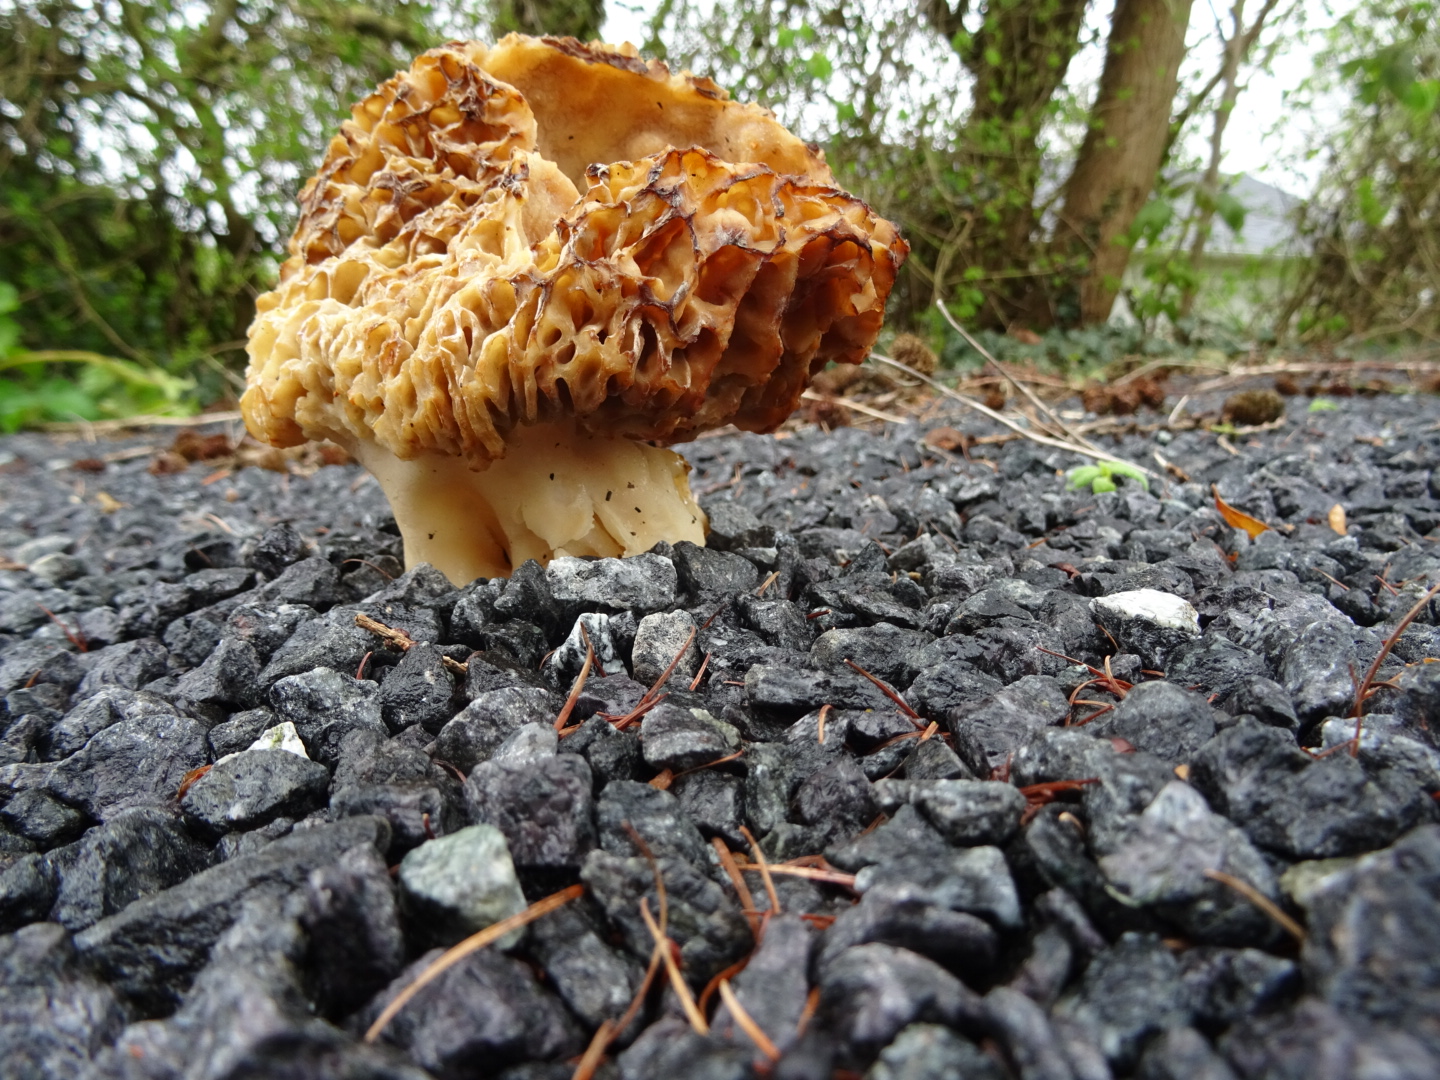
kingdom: Fungi
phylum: Ascomycota
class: Pezizomycetes
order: Pezizales
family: Morchellaceae
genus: Morchella
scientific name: Morchella esculenta
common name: spiselig morkel
